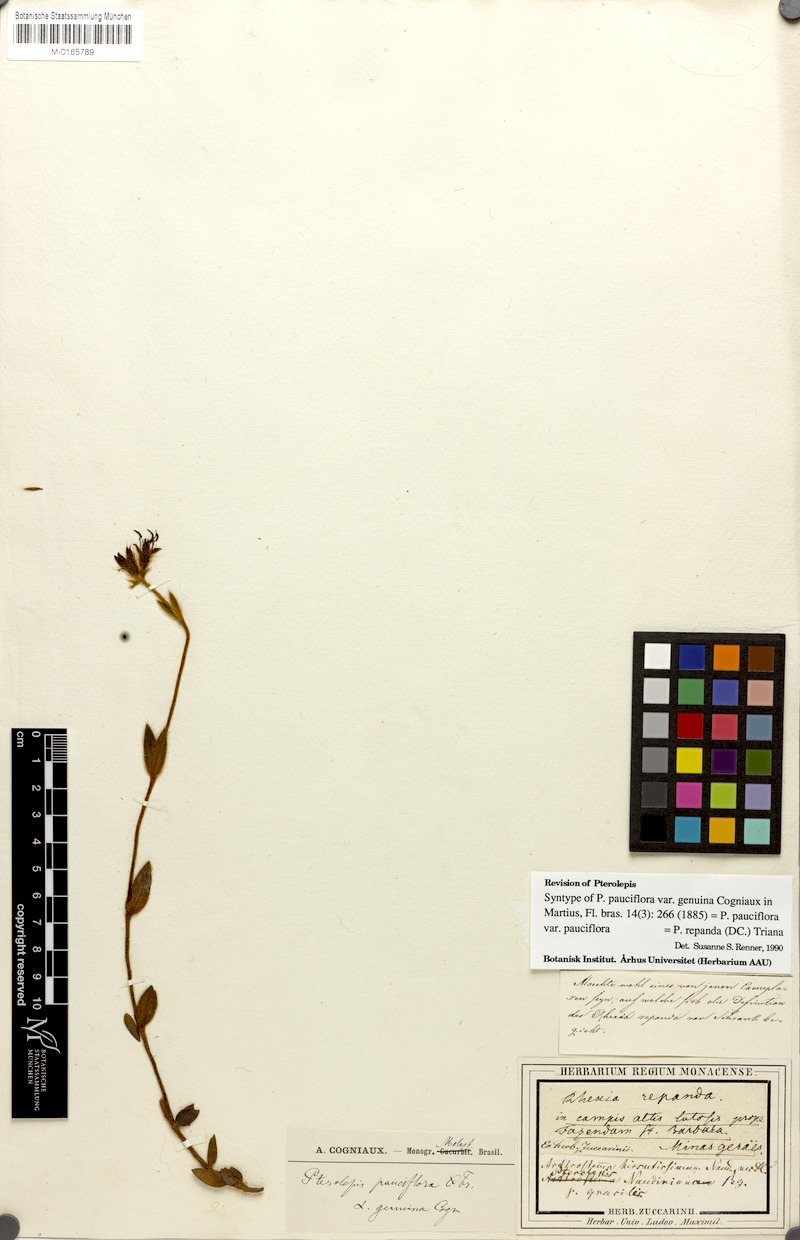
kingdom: Plantae
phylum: Tracheophyta
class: Magnoliopsida
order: Myrtales
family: Melastomataceae
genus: Pterolepis
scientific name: Pterolepis repanda
